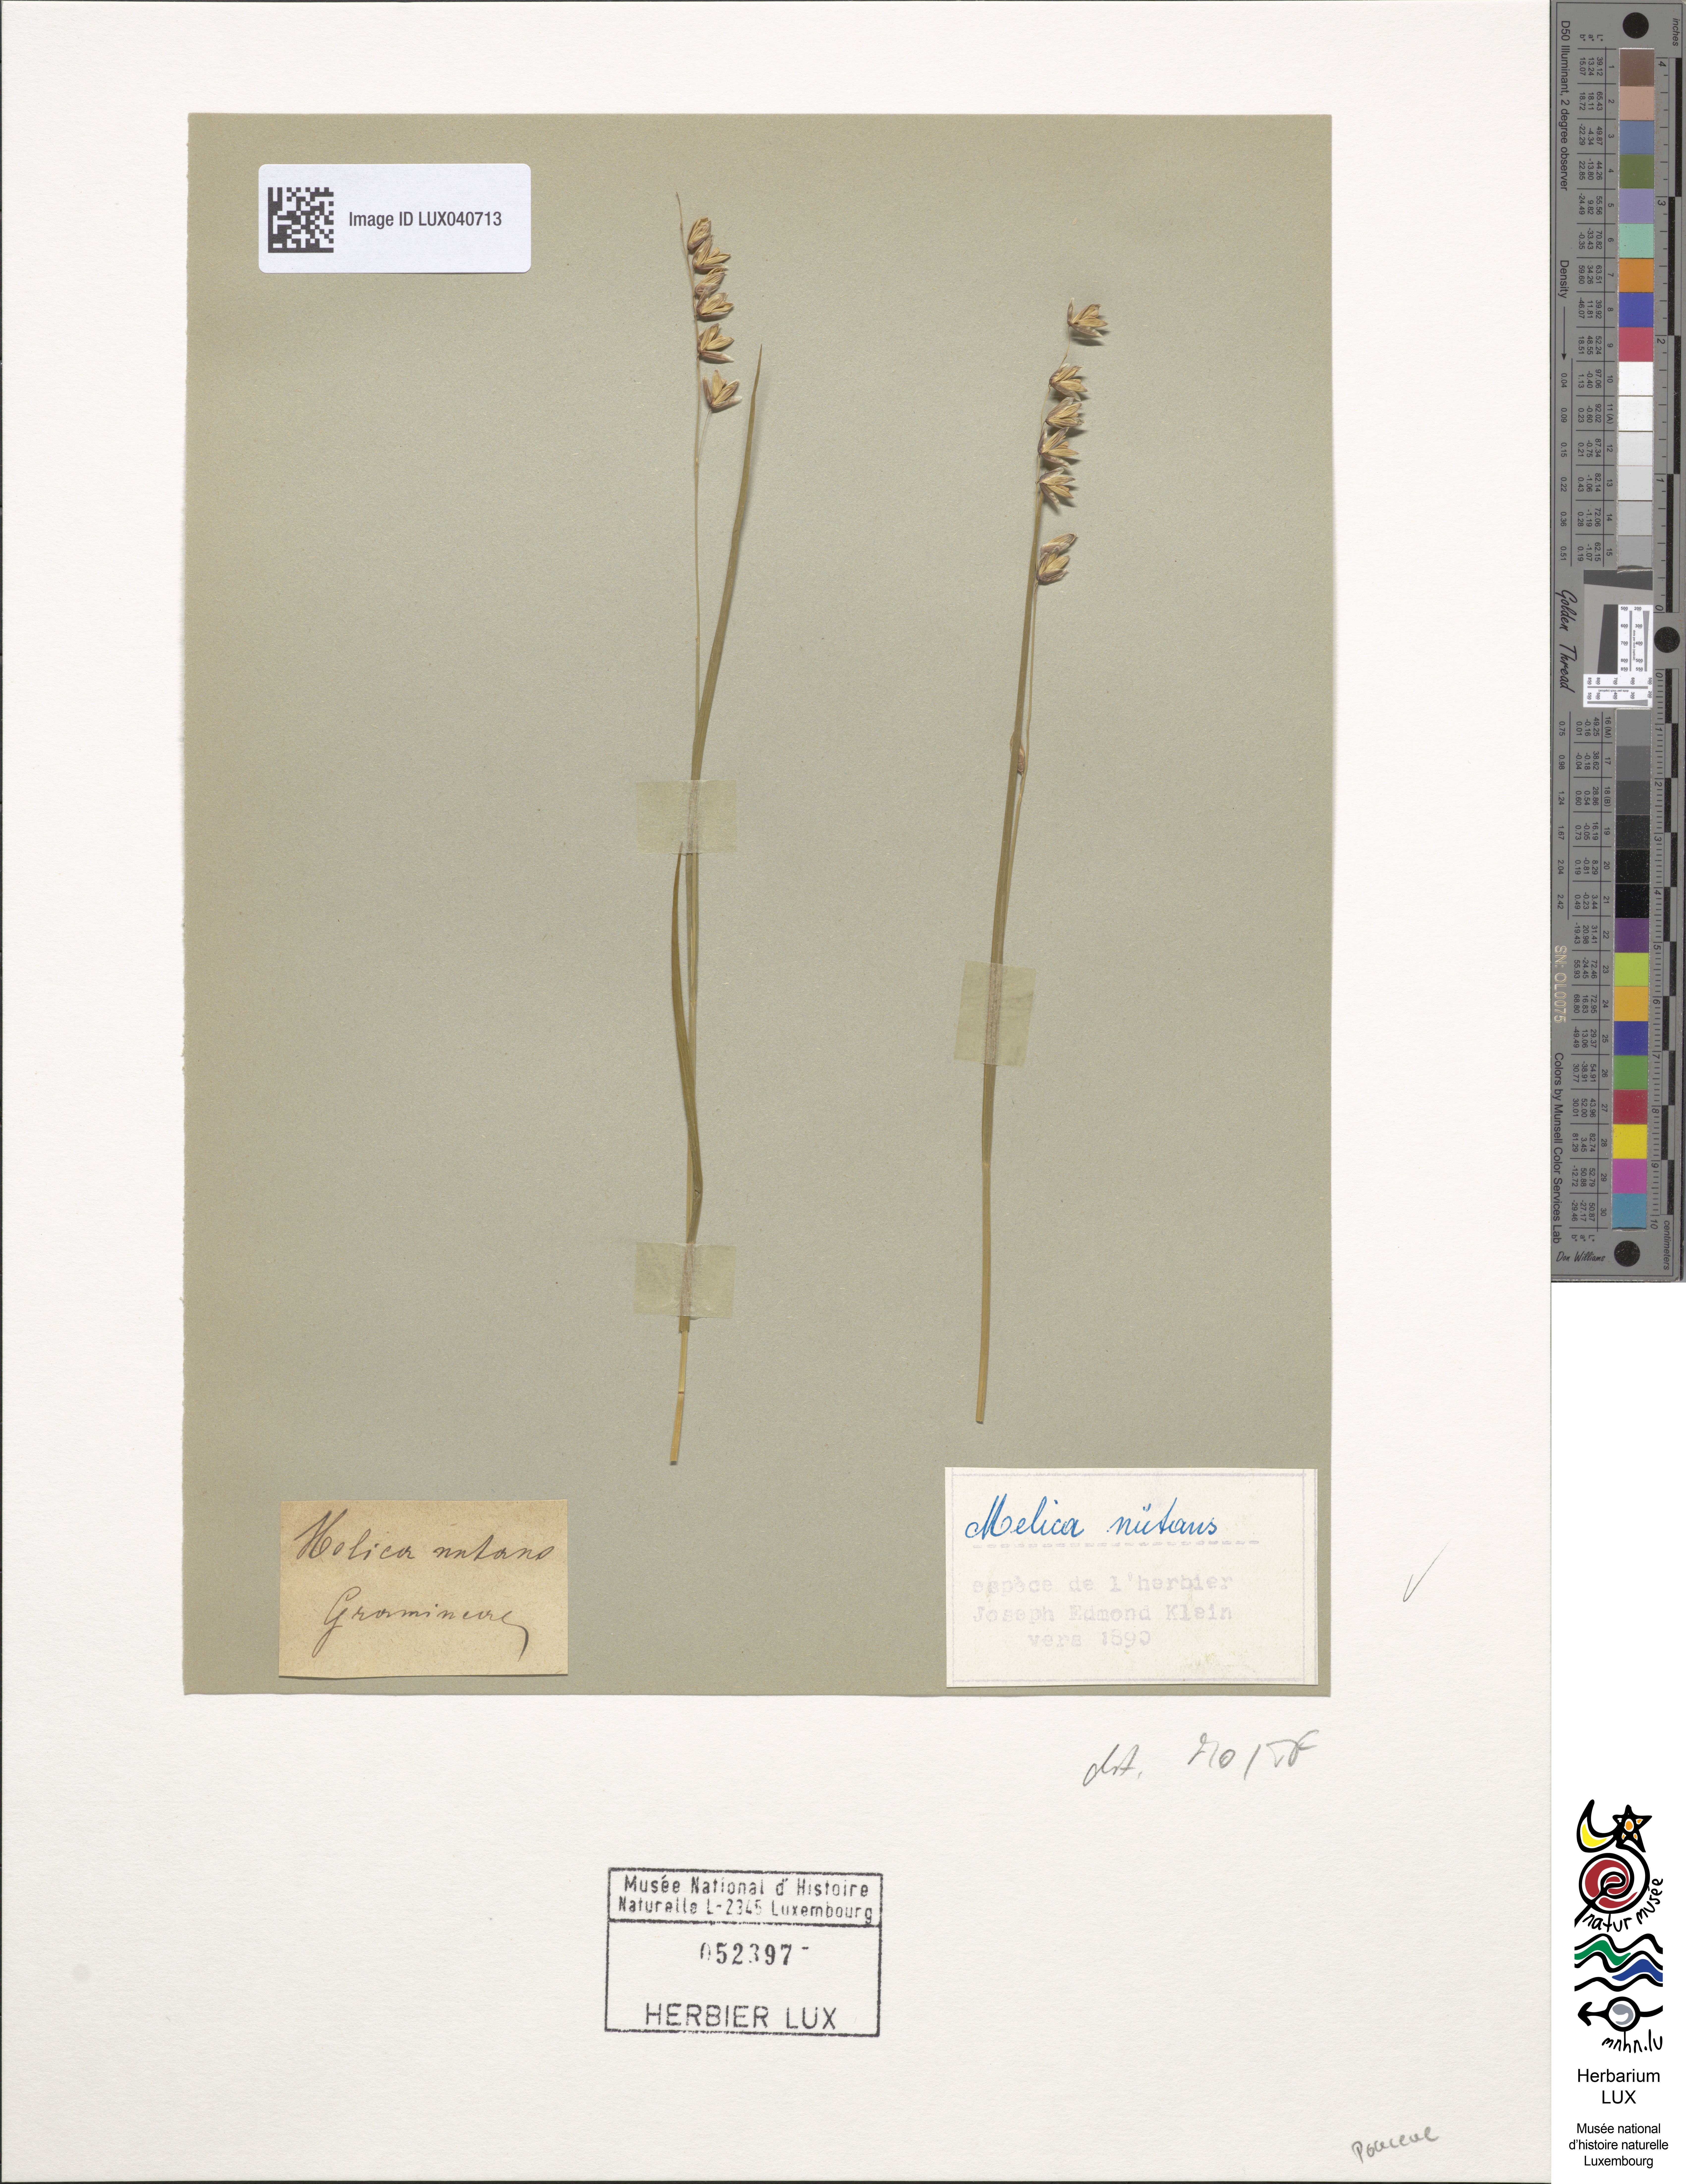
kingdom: Plantae
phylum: Tracheophyta
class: Liliopsida
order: Poales
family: Poaceae
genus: Melica
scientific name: Melica nutans
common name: Mountain melick
